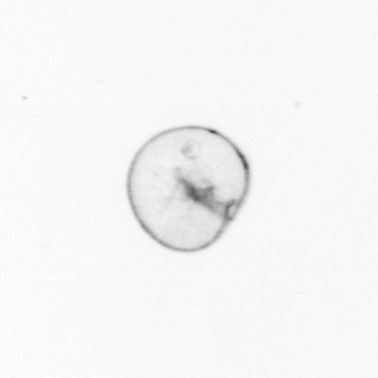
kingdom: Chromista
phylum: Myzozoa
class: Dinophyceae
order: Noctilucales
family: Noctilucaceae
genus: Noctiluca
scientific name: Noctiluca scintillans
